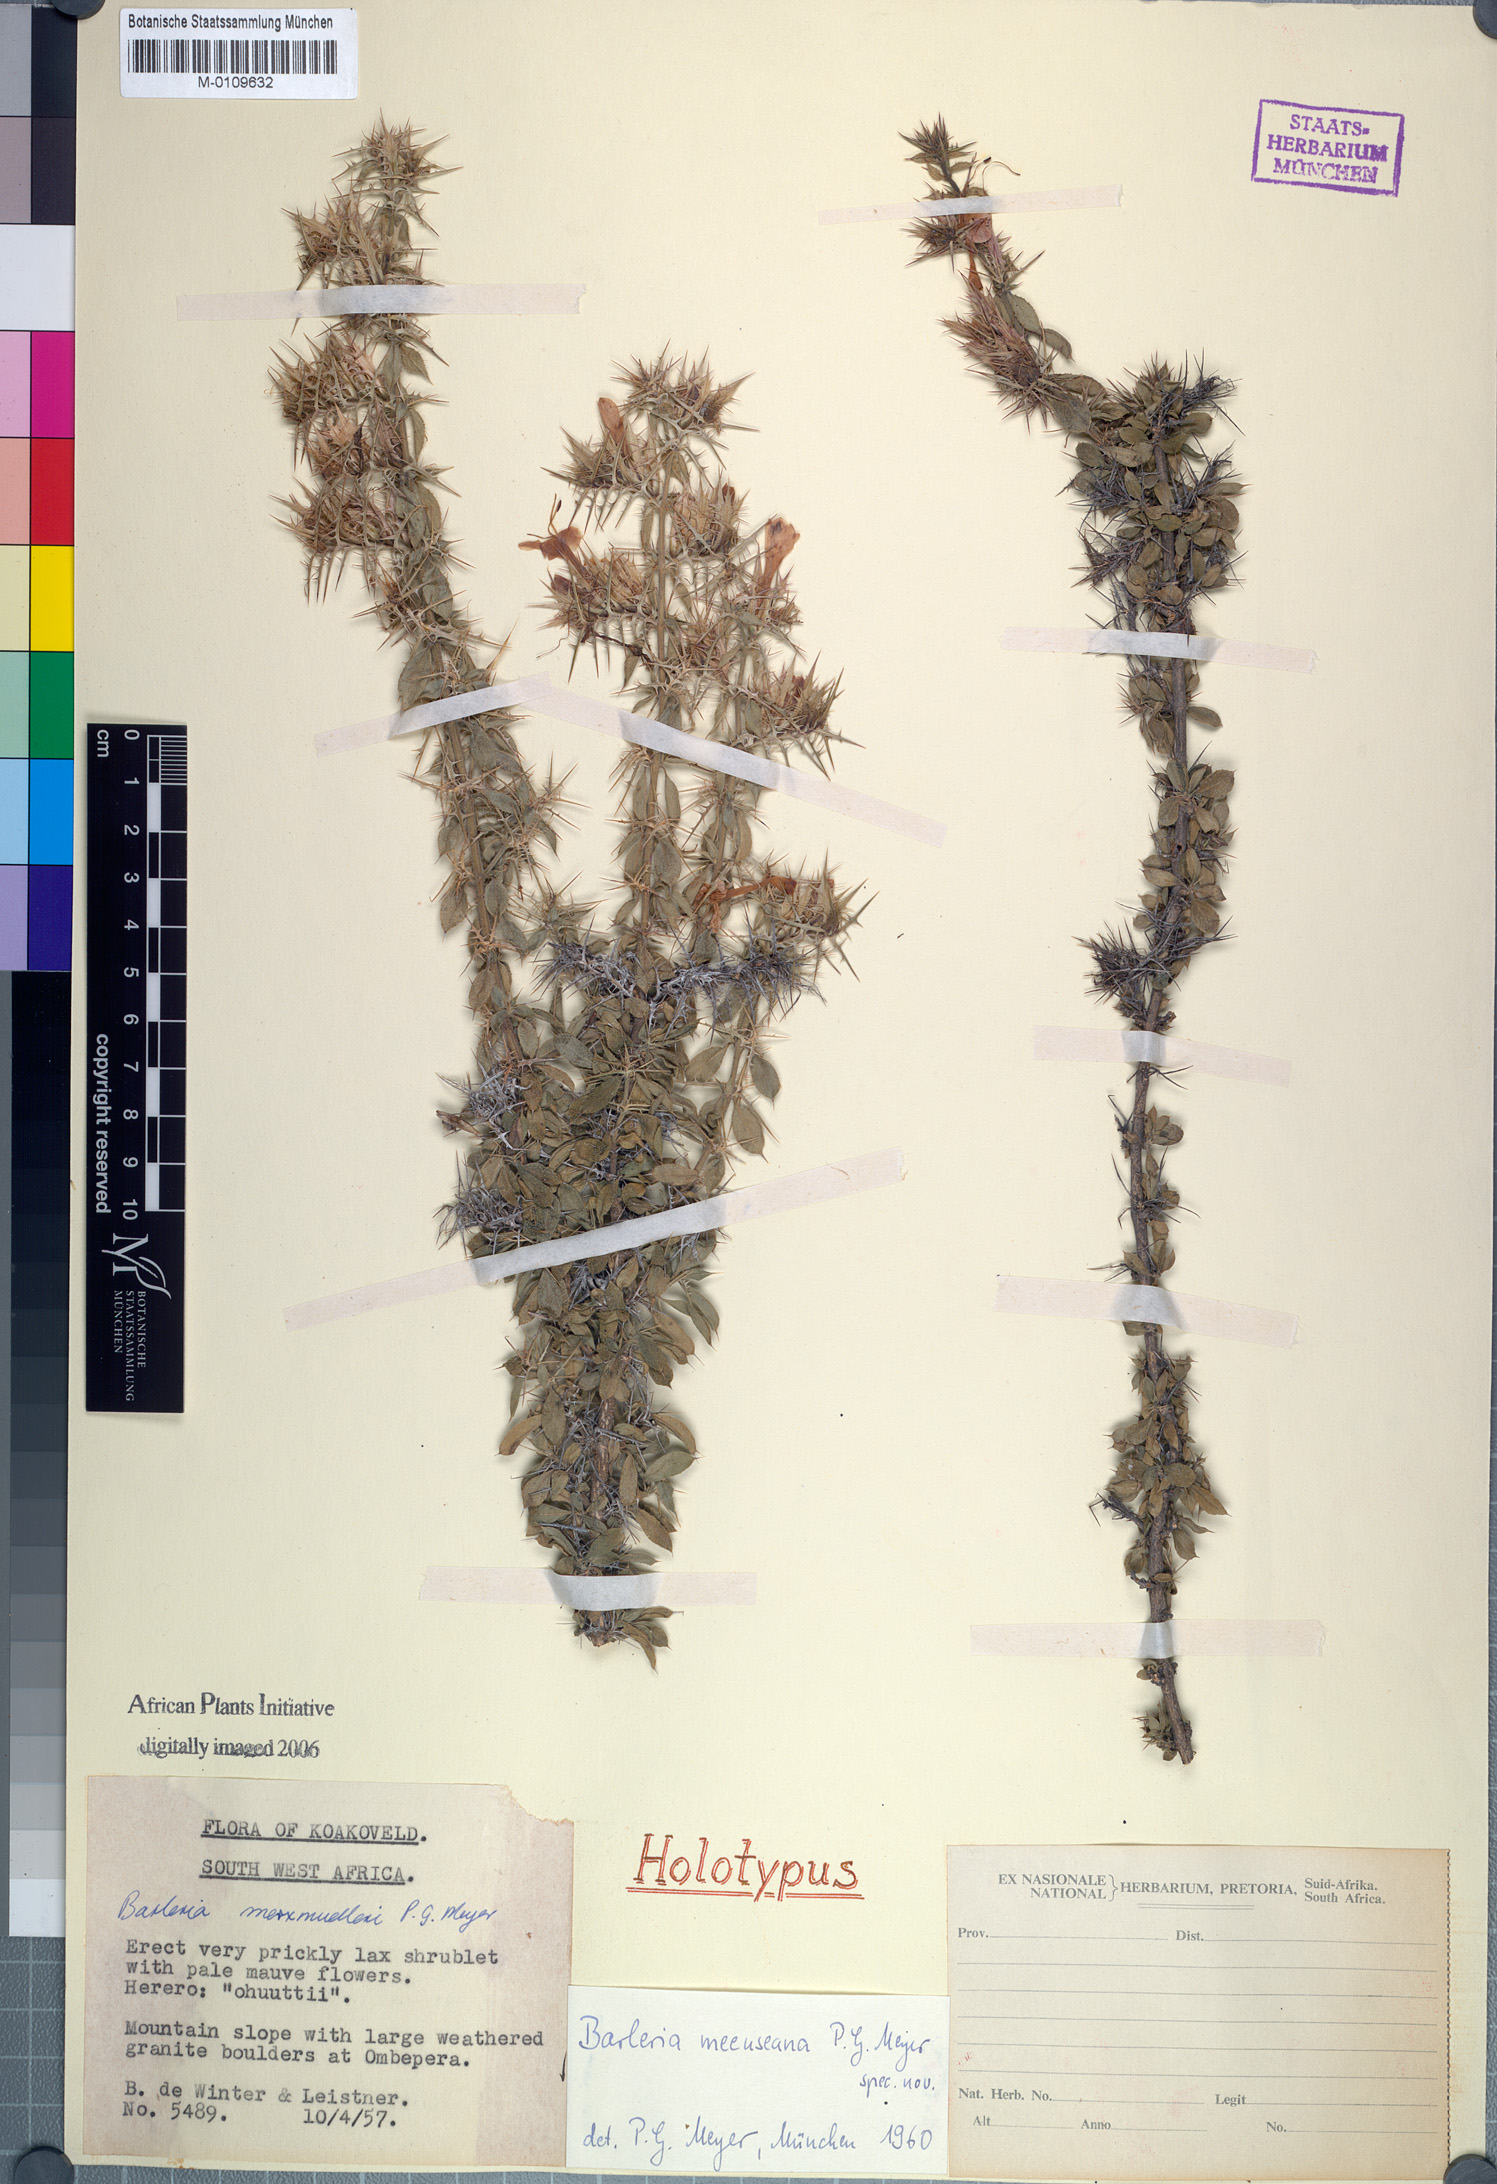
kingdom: Plantae
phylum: Tracheophyta
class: Magnoliopsida
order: Lamiales
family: Acanthaceae
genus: Barleria
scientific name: Barleria meeuseana
